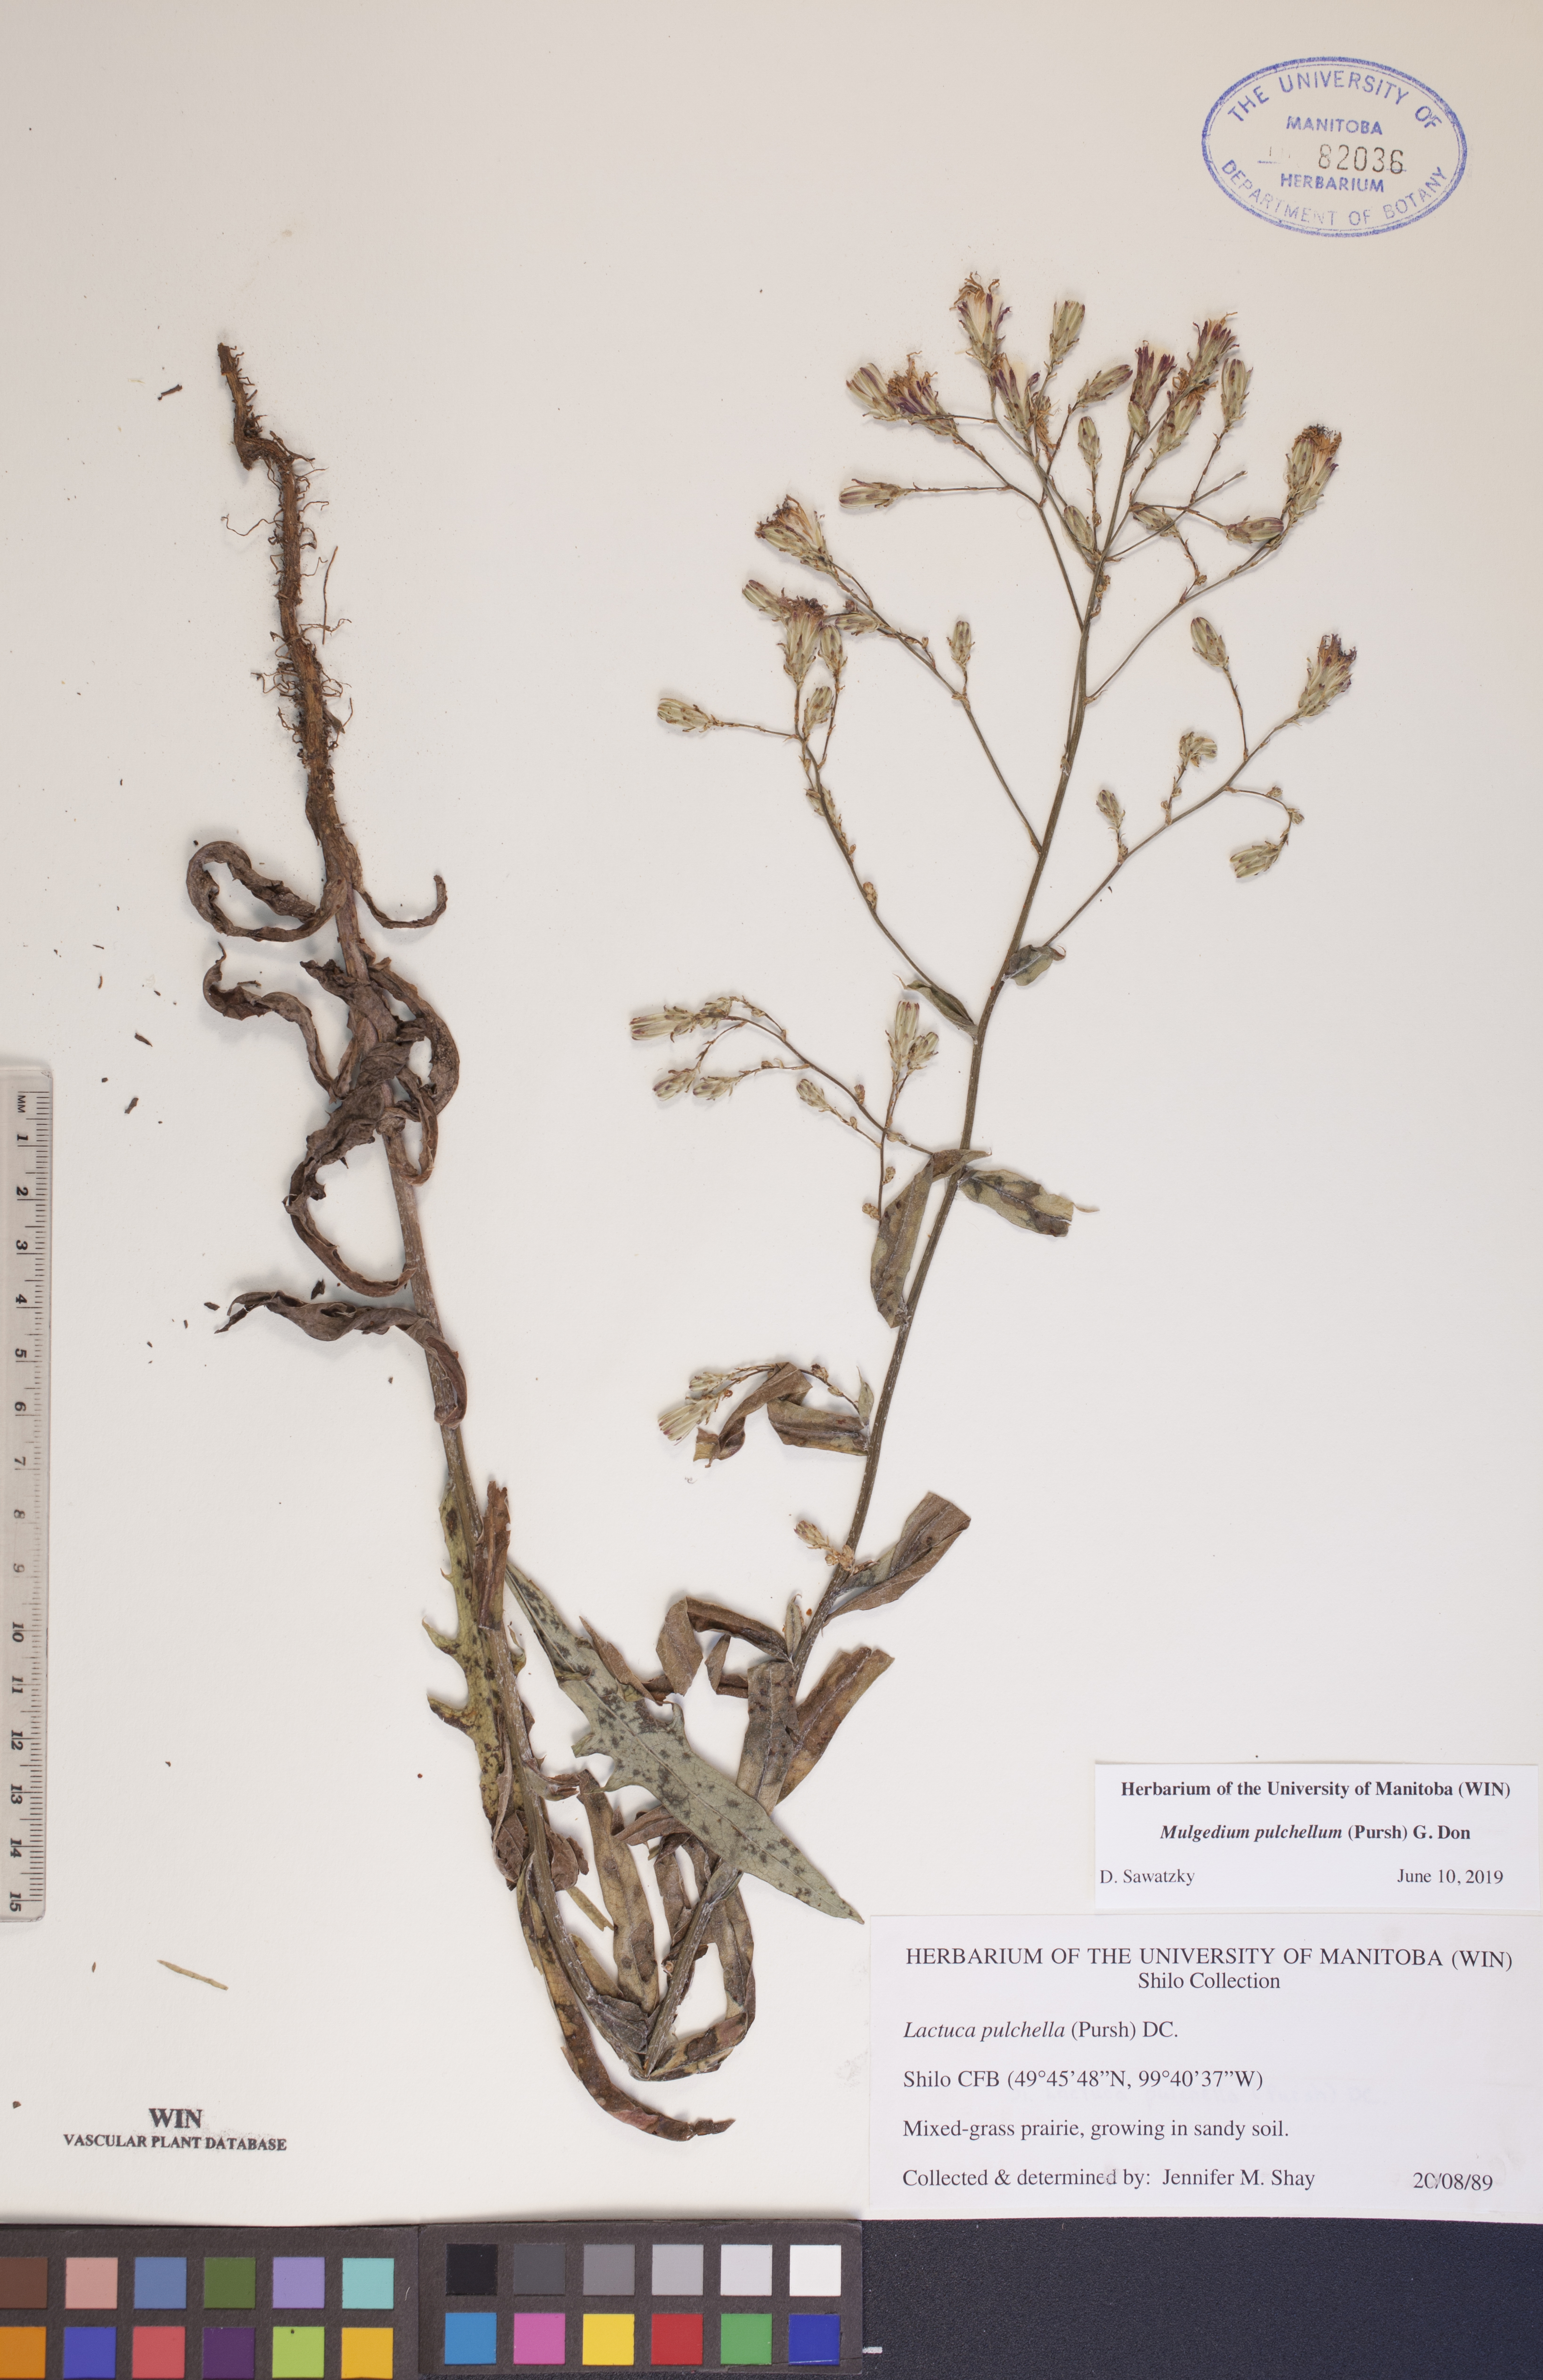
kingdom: Plantae
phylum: Tracheophyta
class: Magnoliopsida
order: Asterales
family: Asteraceae
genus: Lactuca
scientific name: Lactuca pulchella
